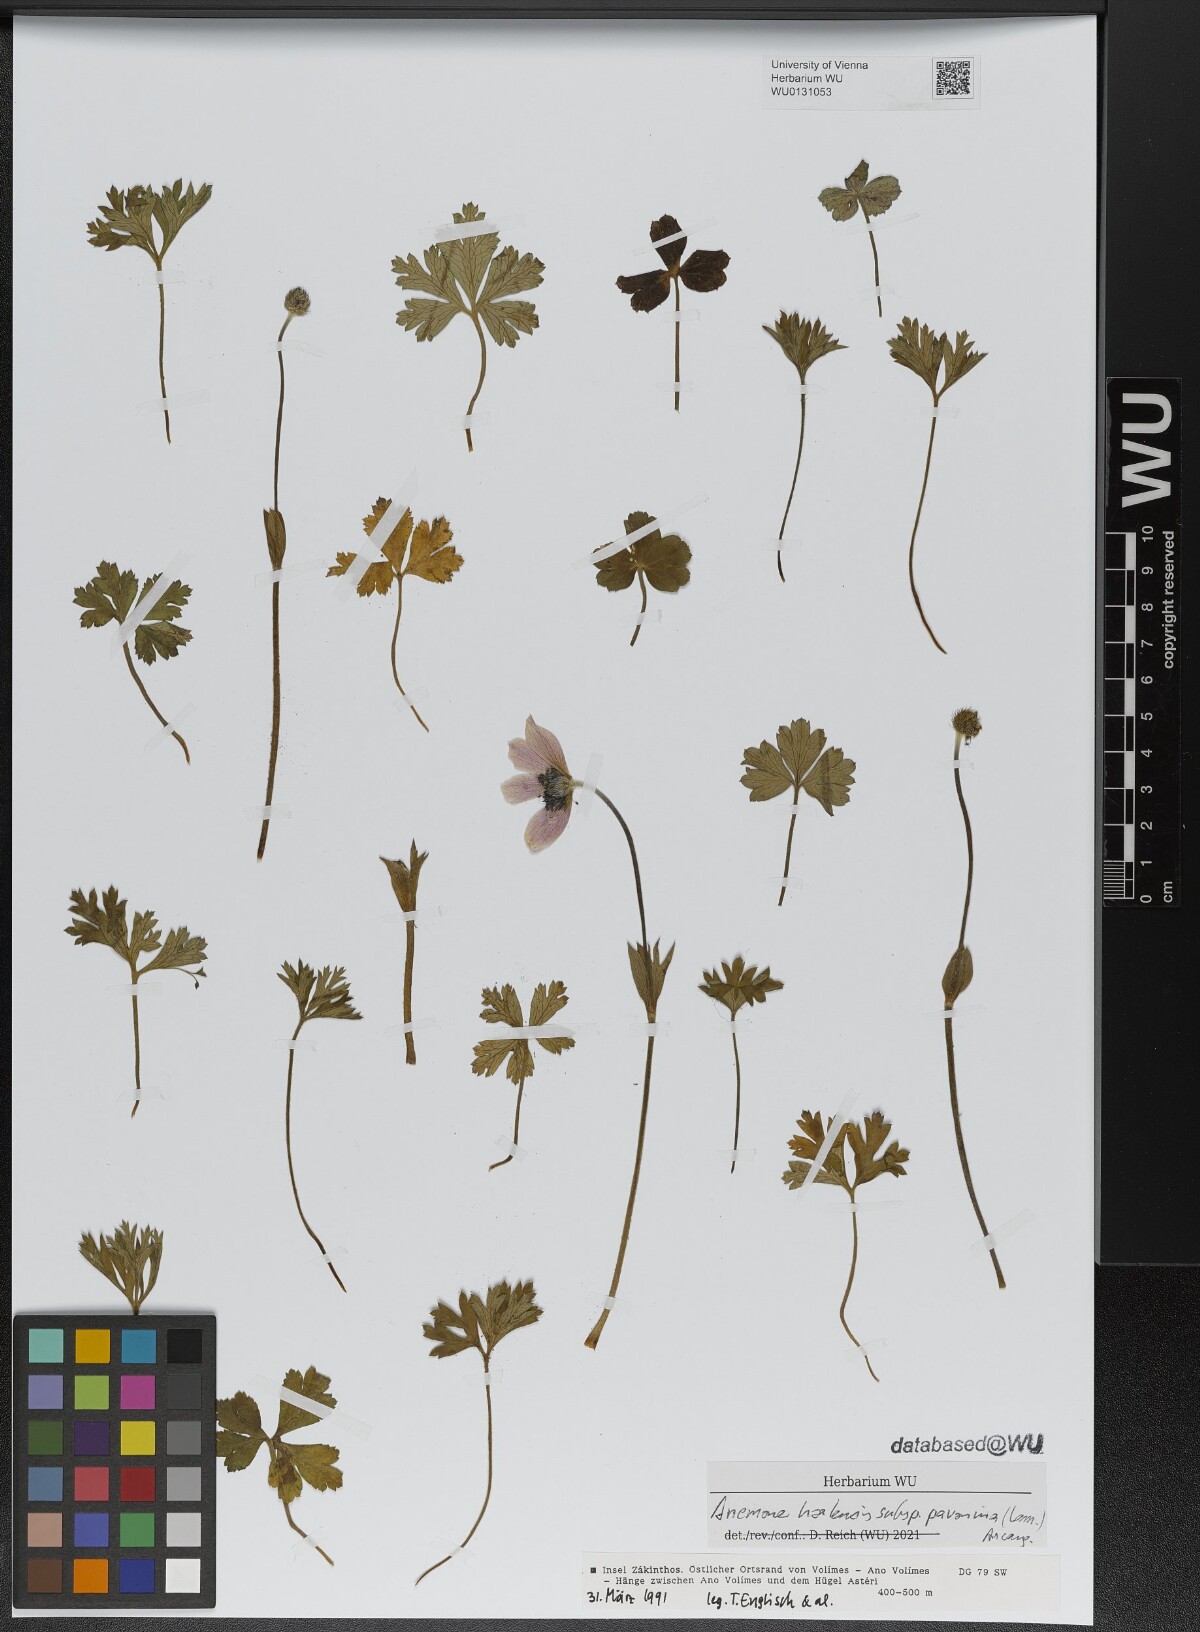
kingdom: Plantae
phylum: Tracheophyta
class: Magnoliopsida
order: Ranunculales
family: Ranunculaceae
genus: Anemone
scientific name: Anemone pavonina
